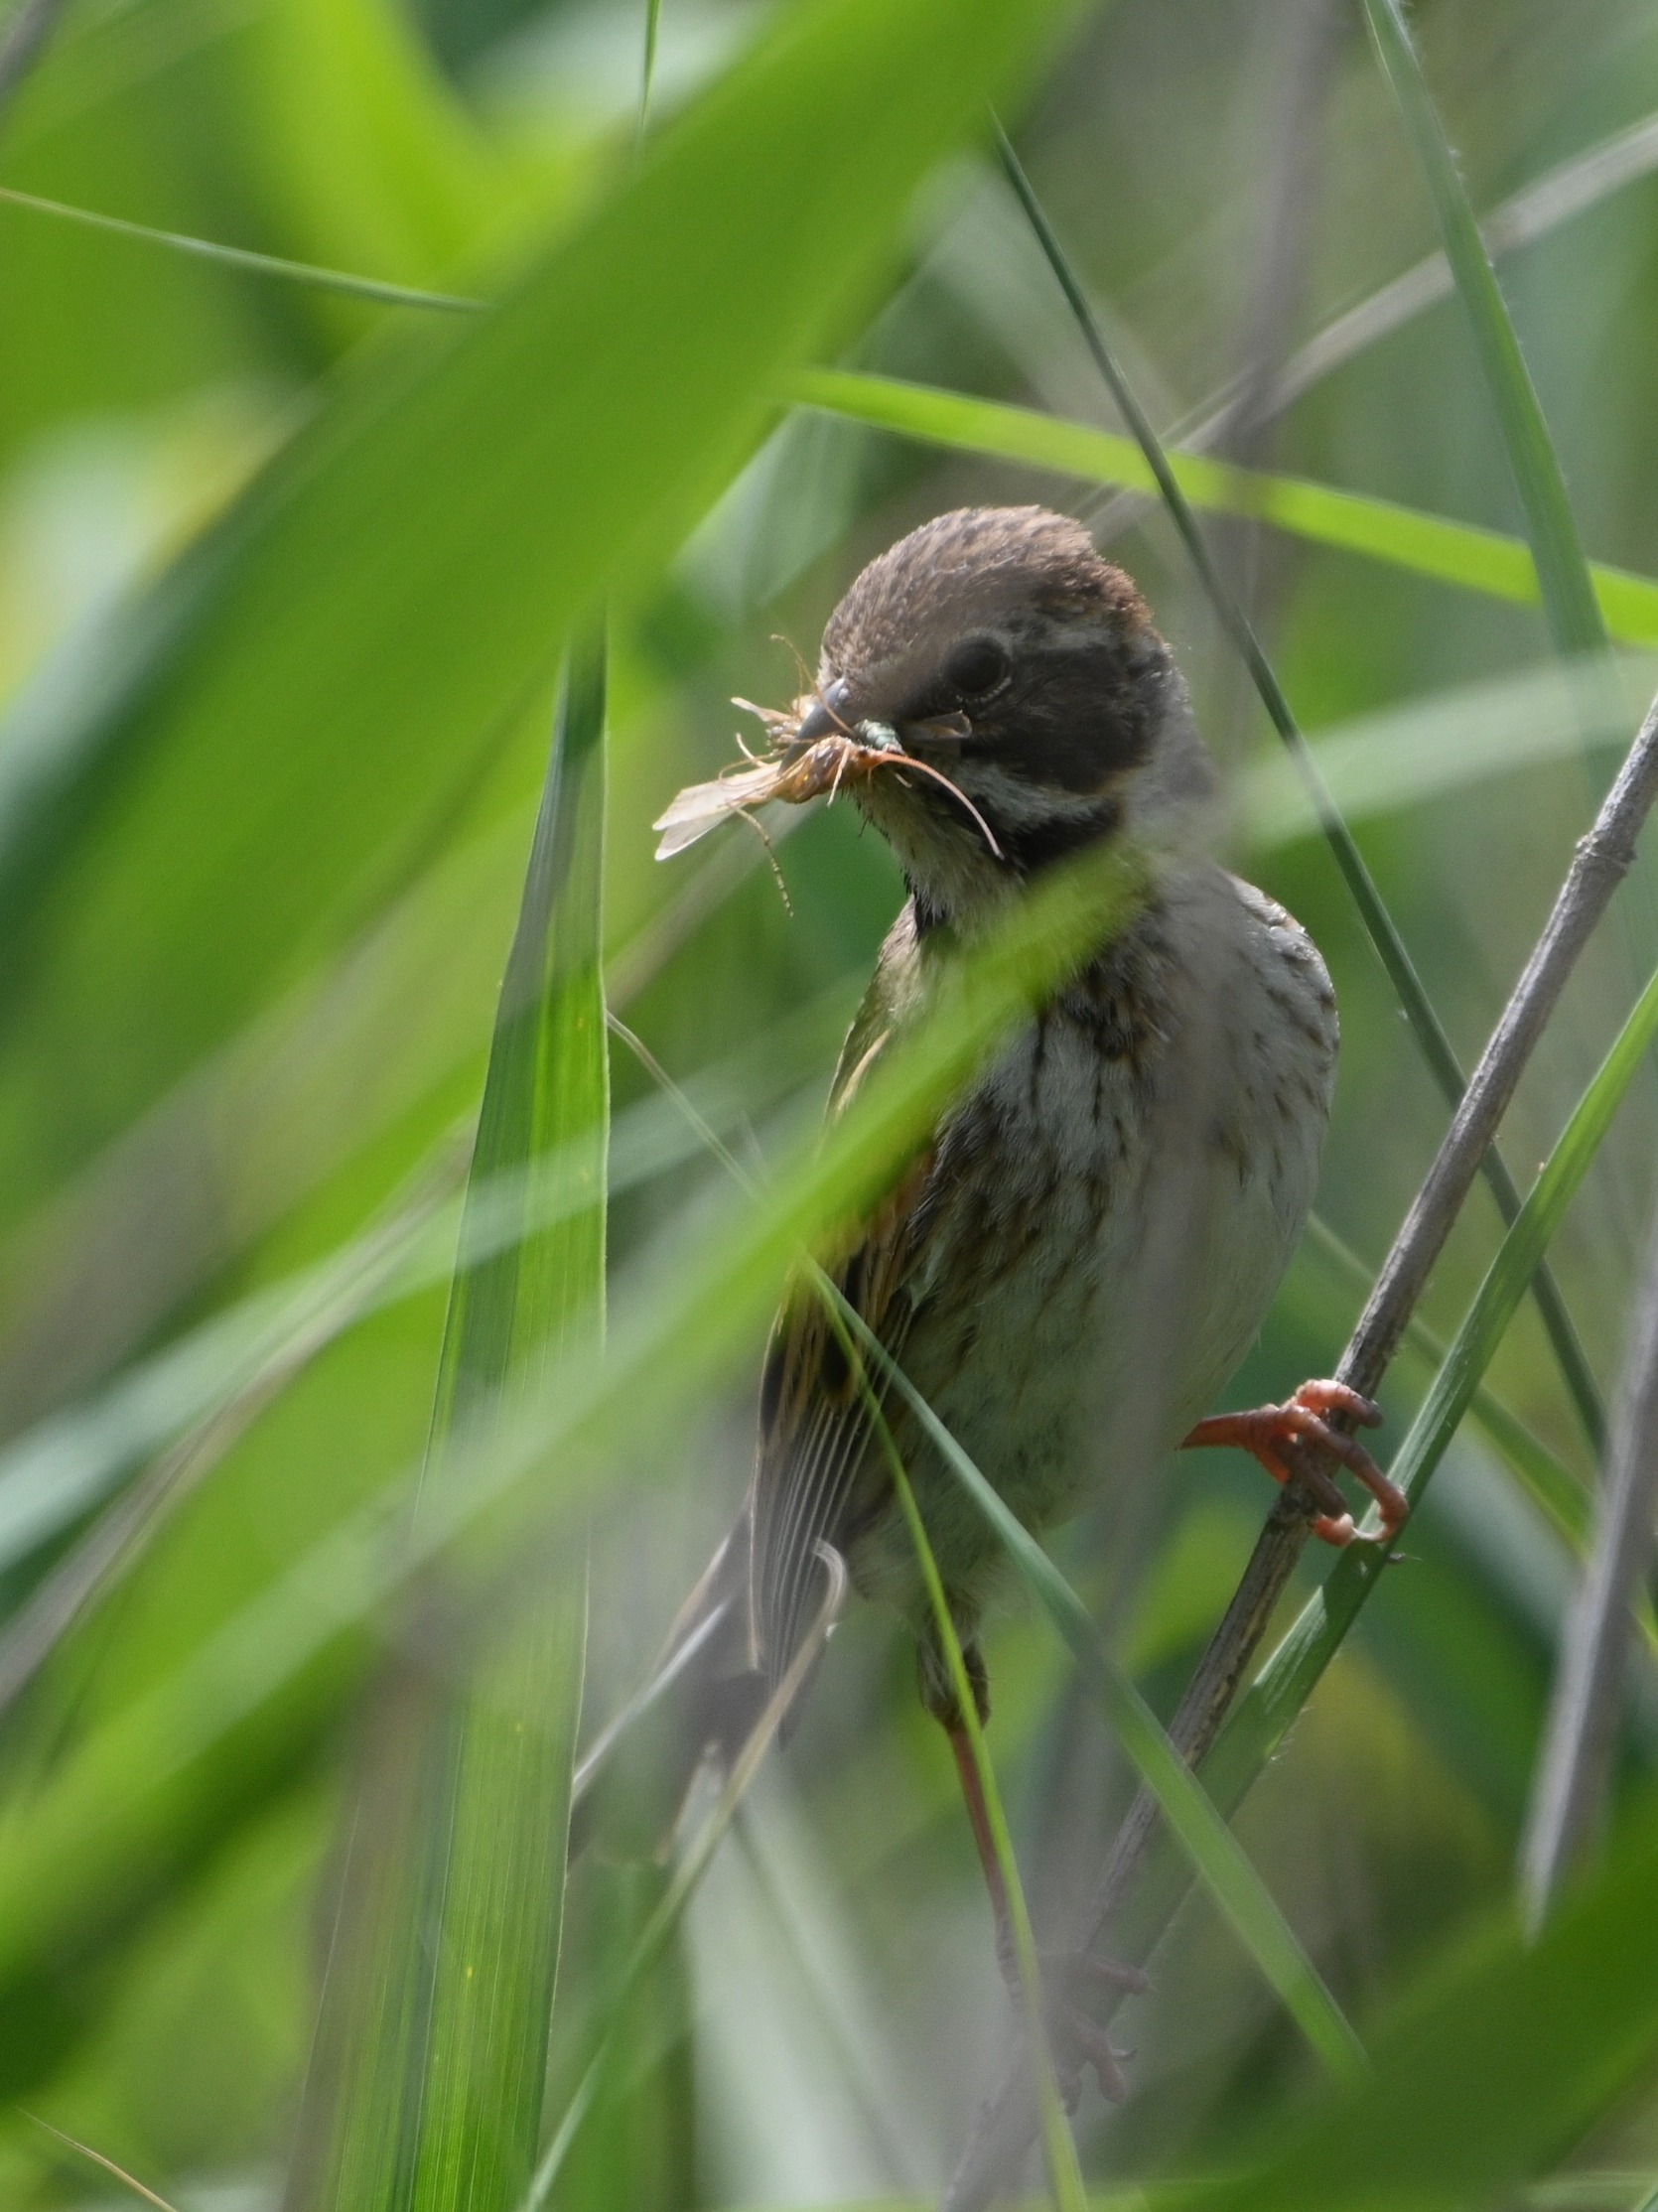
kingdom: Animalia
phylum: Chordata
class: Aves
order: Passeriformes
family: Emberizidae
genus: Emberiza
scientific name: Emberiza schoeniclus
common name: Rørspurv
